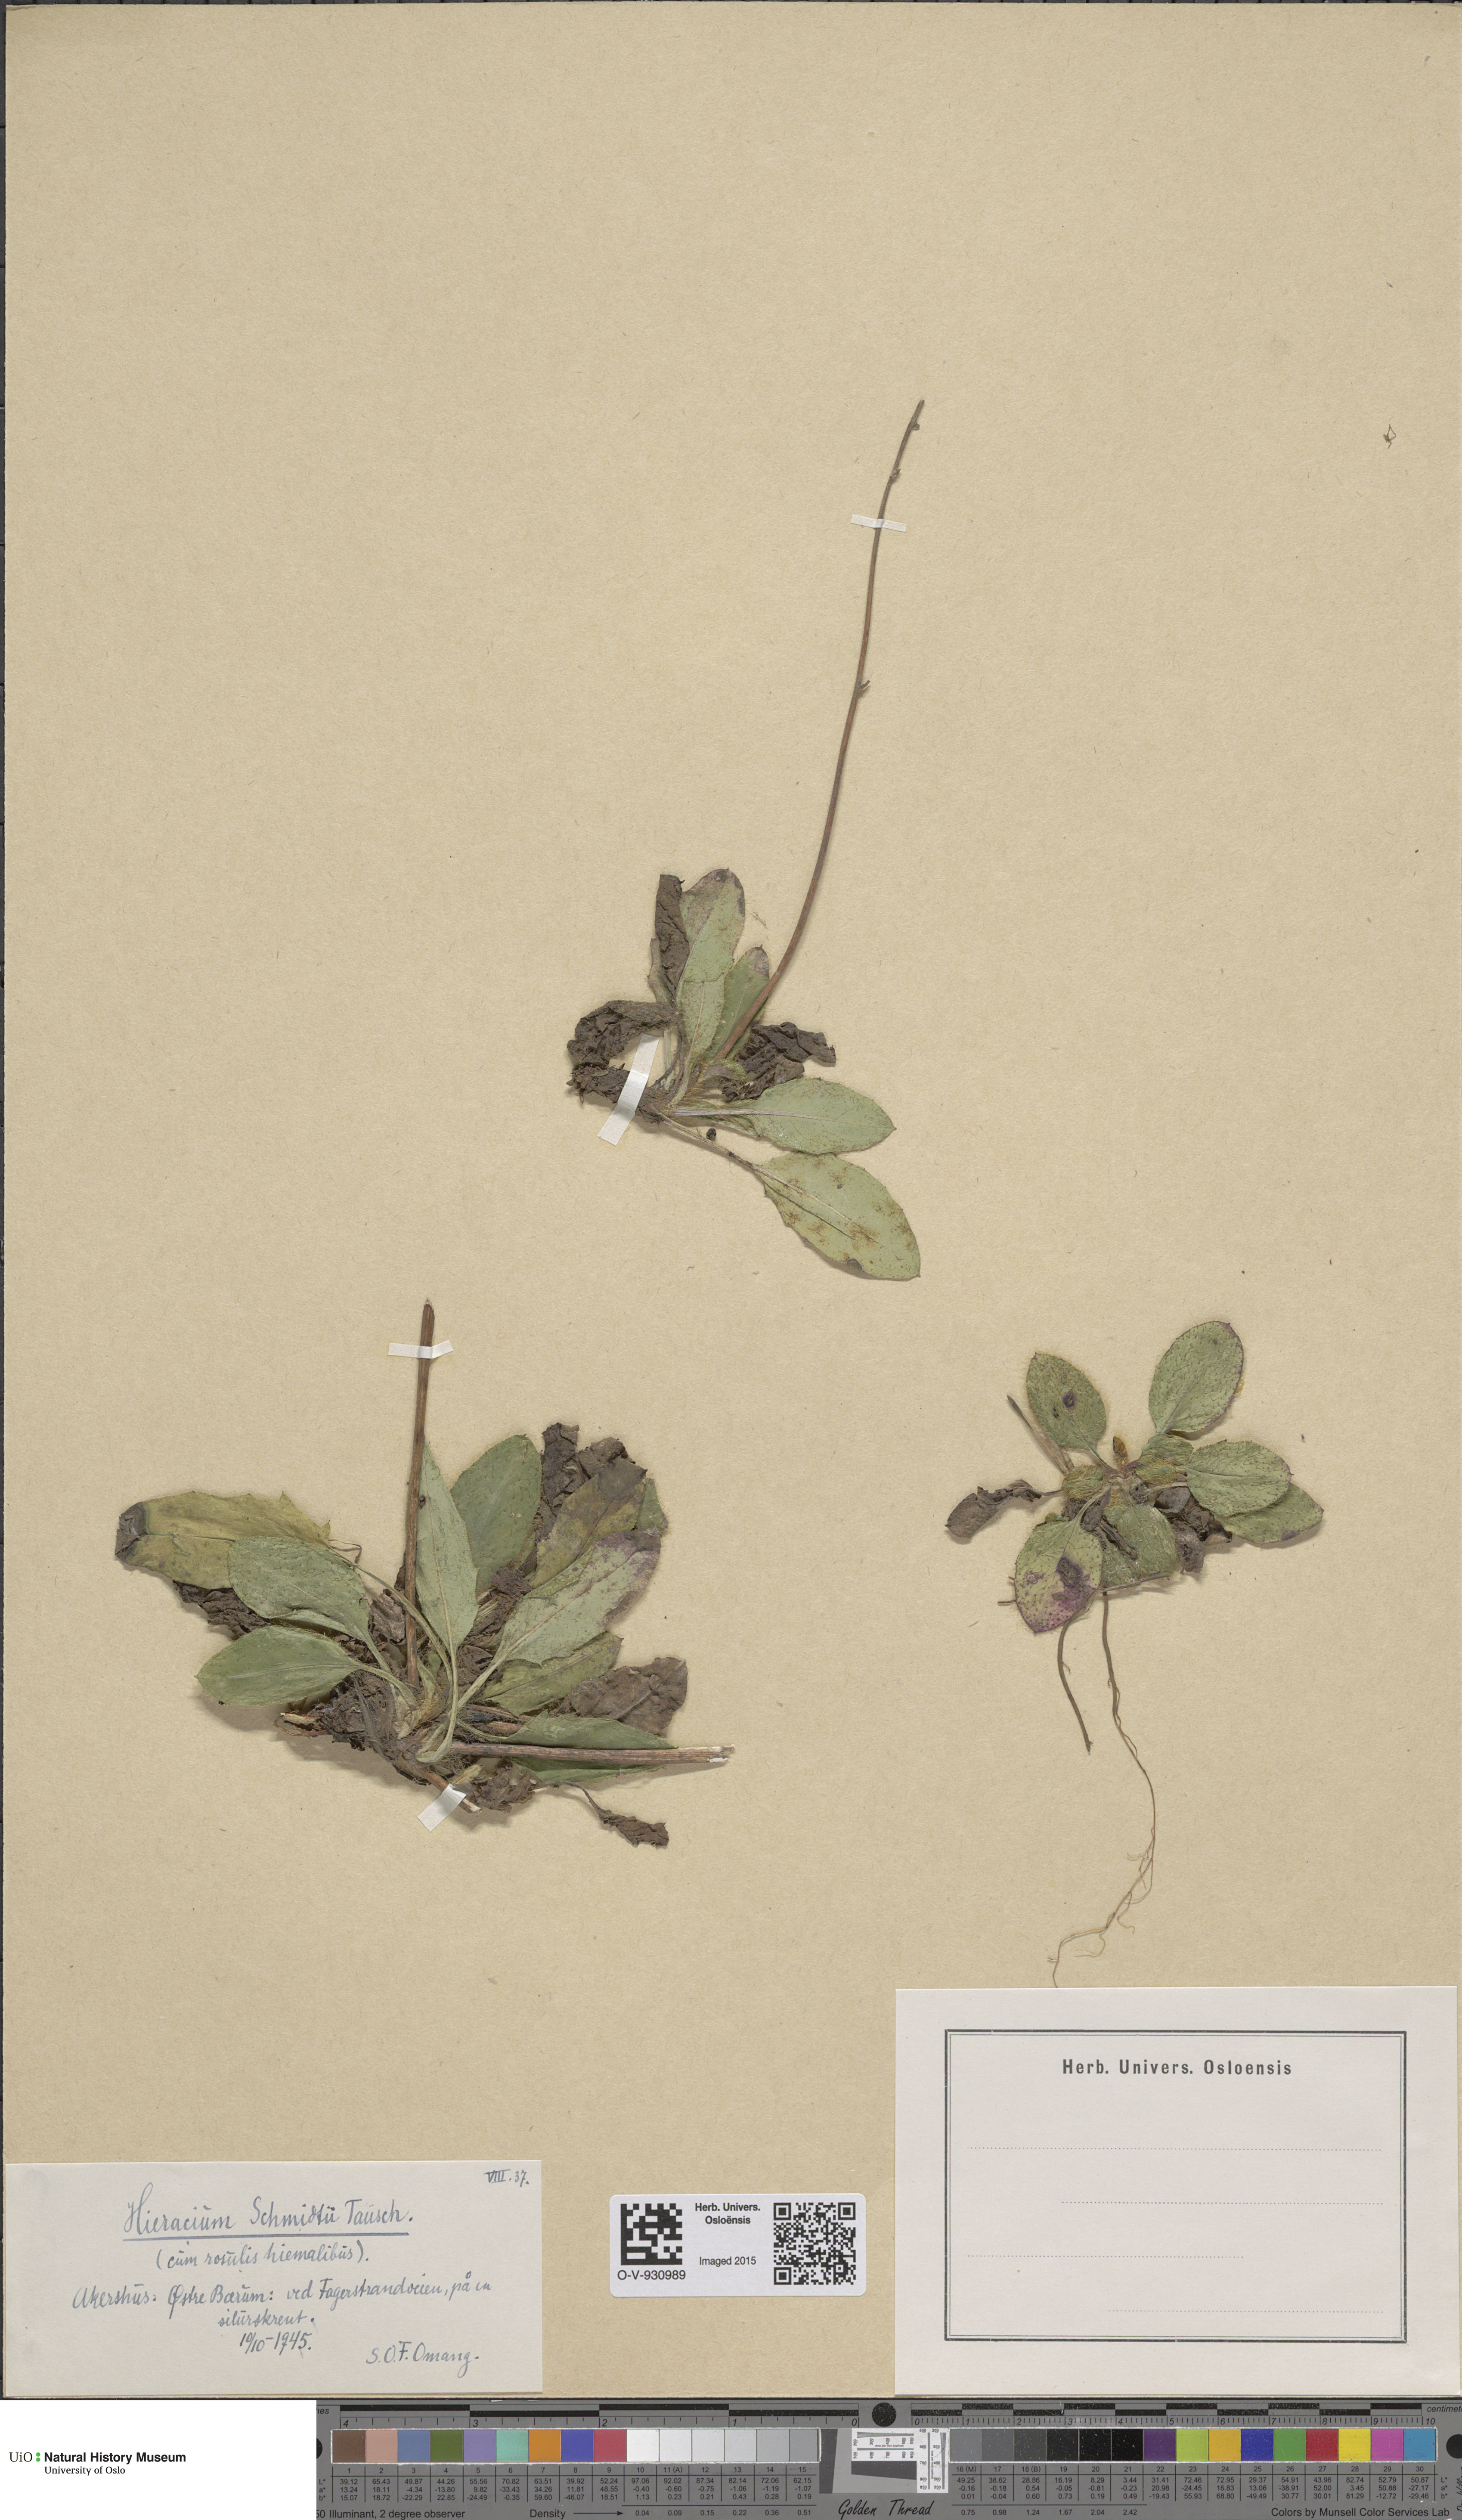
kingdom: Plantae
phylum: Tracheophyta
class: Magnoliopsida
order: Asterales
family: Asteraceae
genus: Hieracium
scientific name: Hieracium schmidtii
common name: Schmidt's hawkweed
